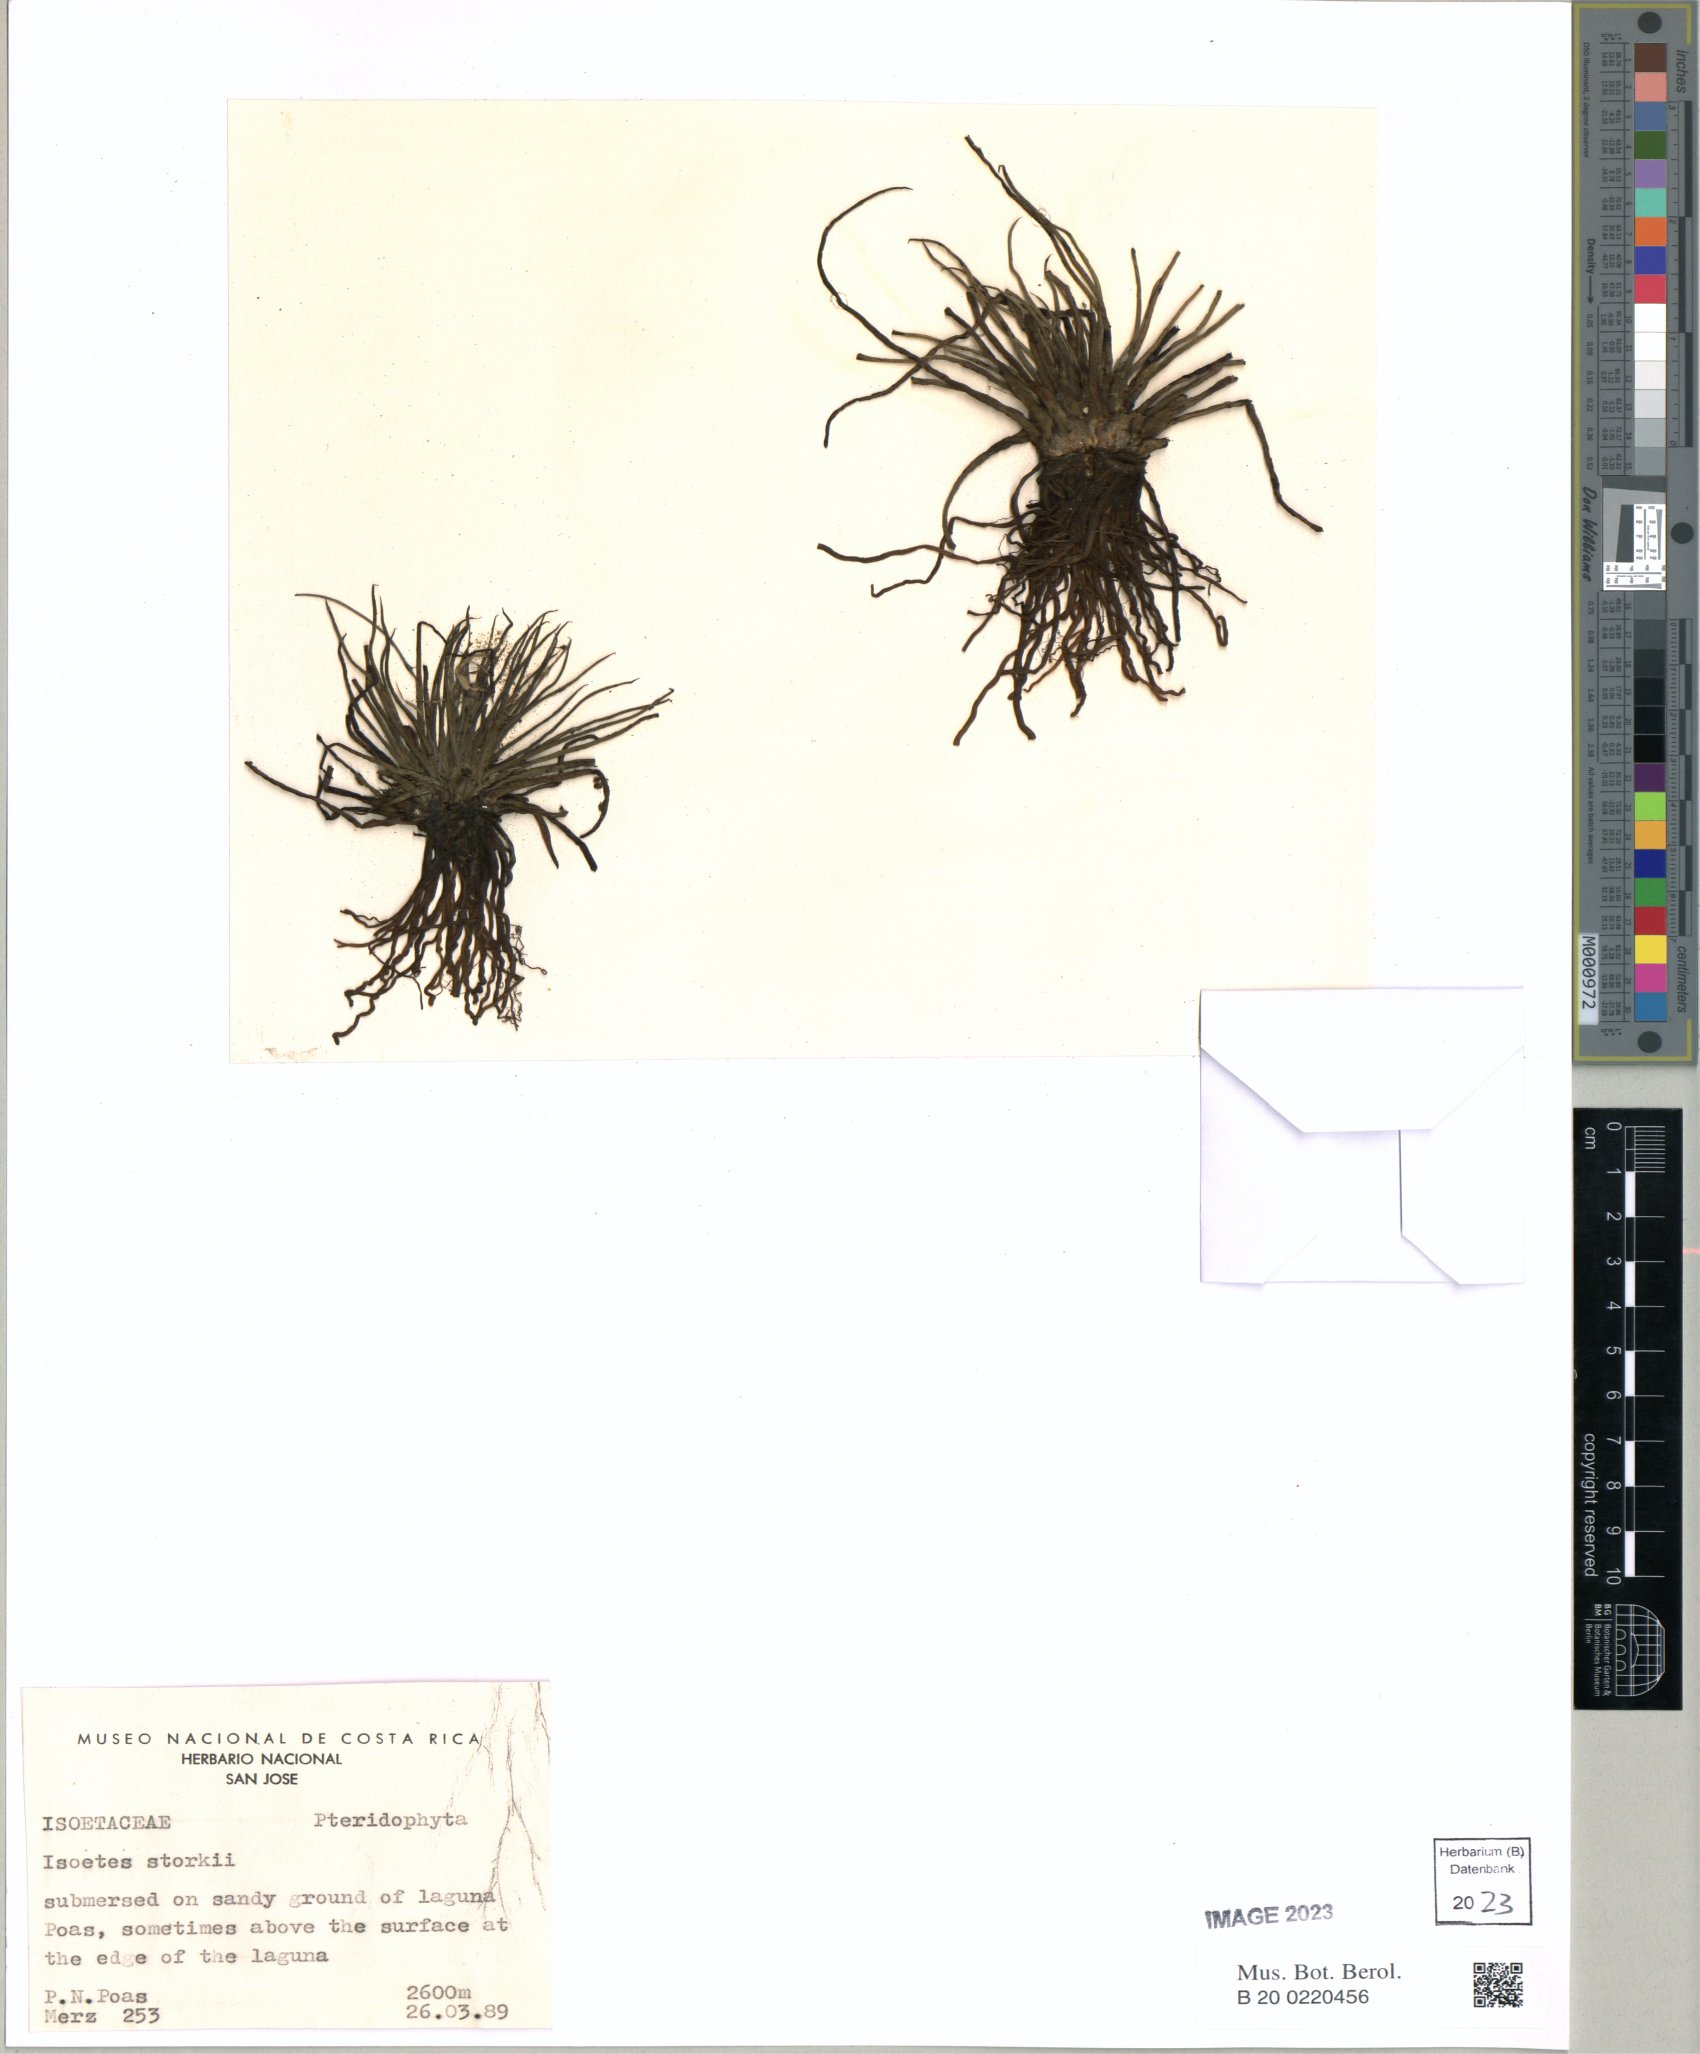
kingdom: Plantae
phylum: Tracheophyta
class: Lycopodiopsida
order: Isoetales
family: Isoetaceae
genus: Isoetes
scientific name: Isoetes storkii
